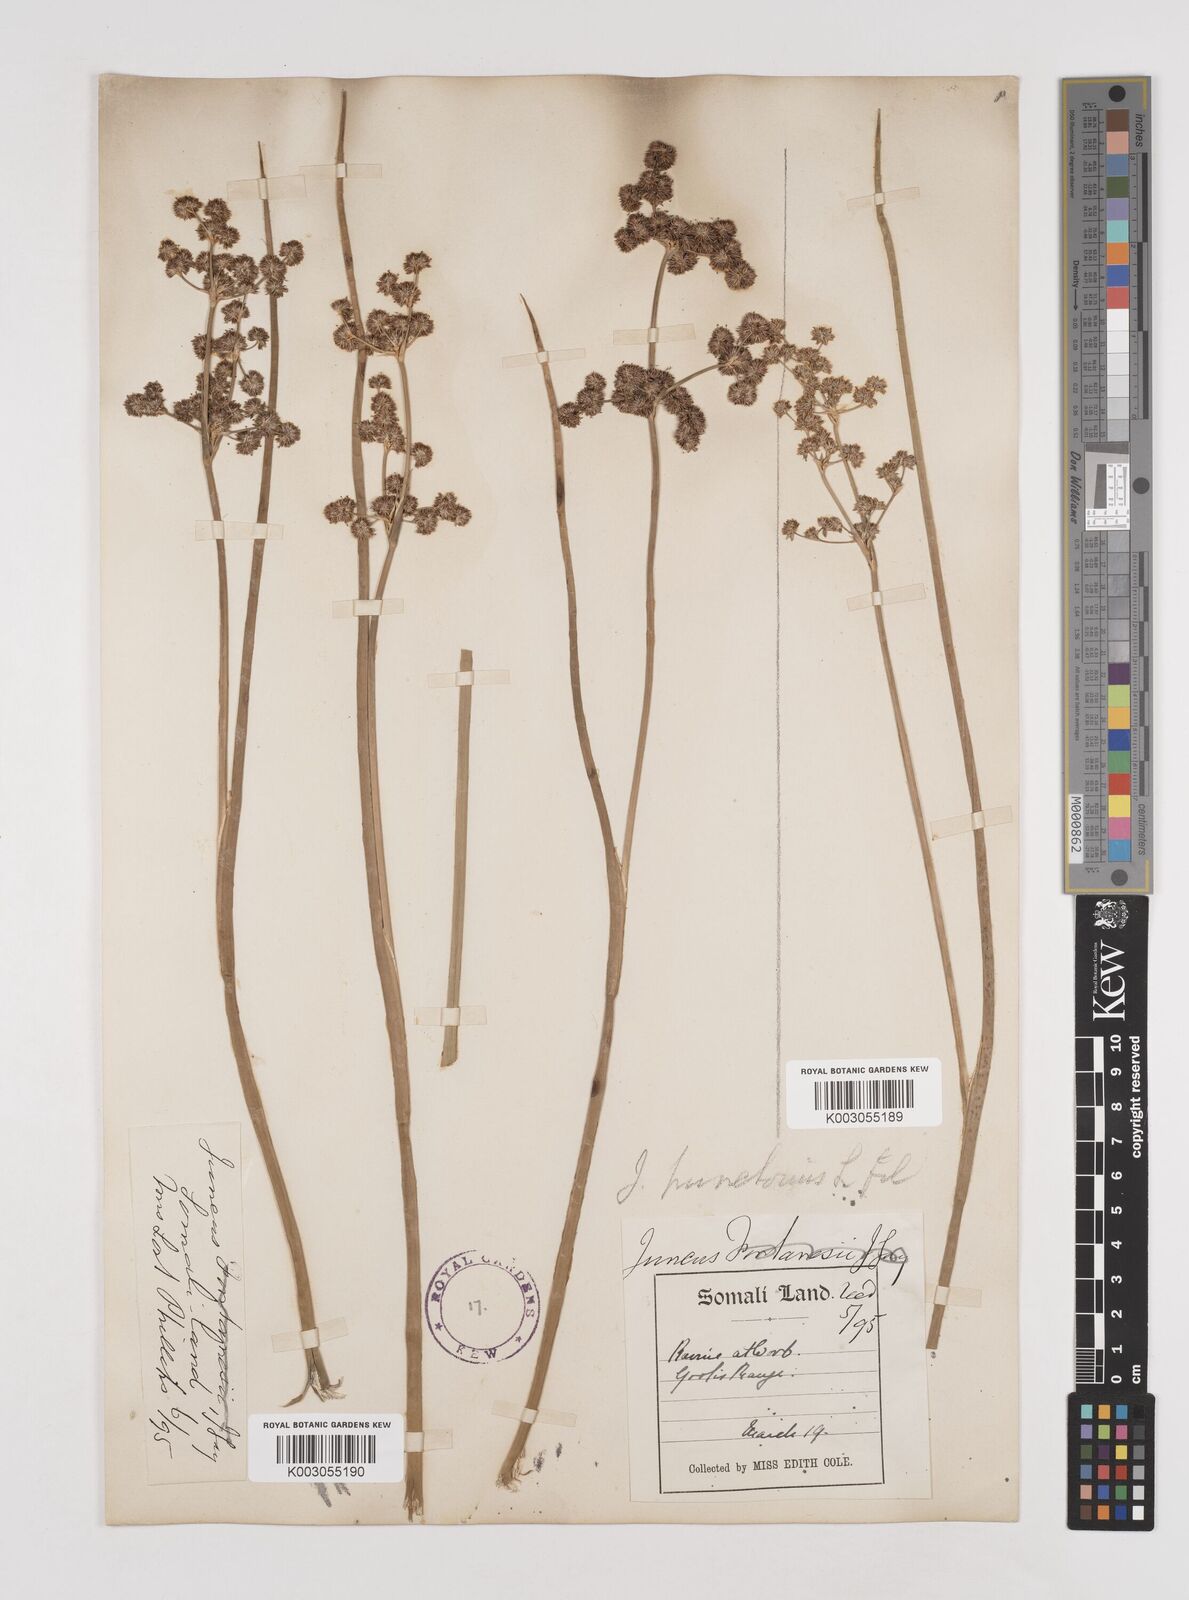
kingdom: Plantae
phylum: Tracheophyta
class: Liliopsida
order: Poales
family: Juncaceae
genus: Juncus
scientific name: Juncus punctorius
